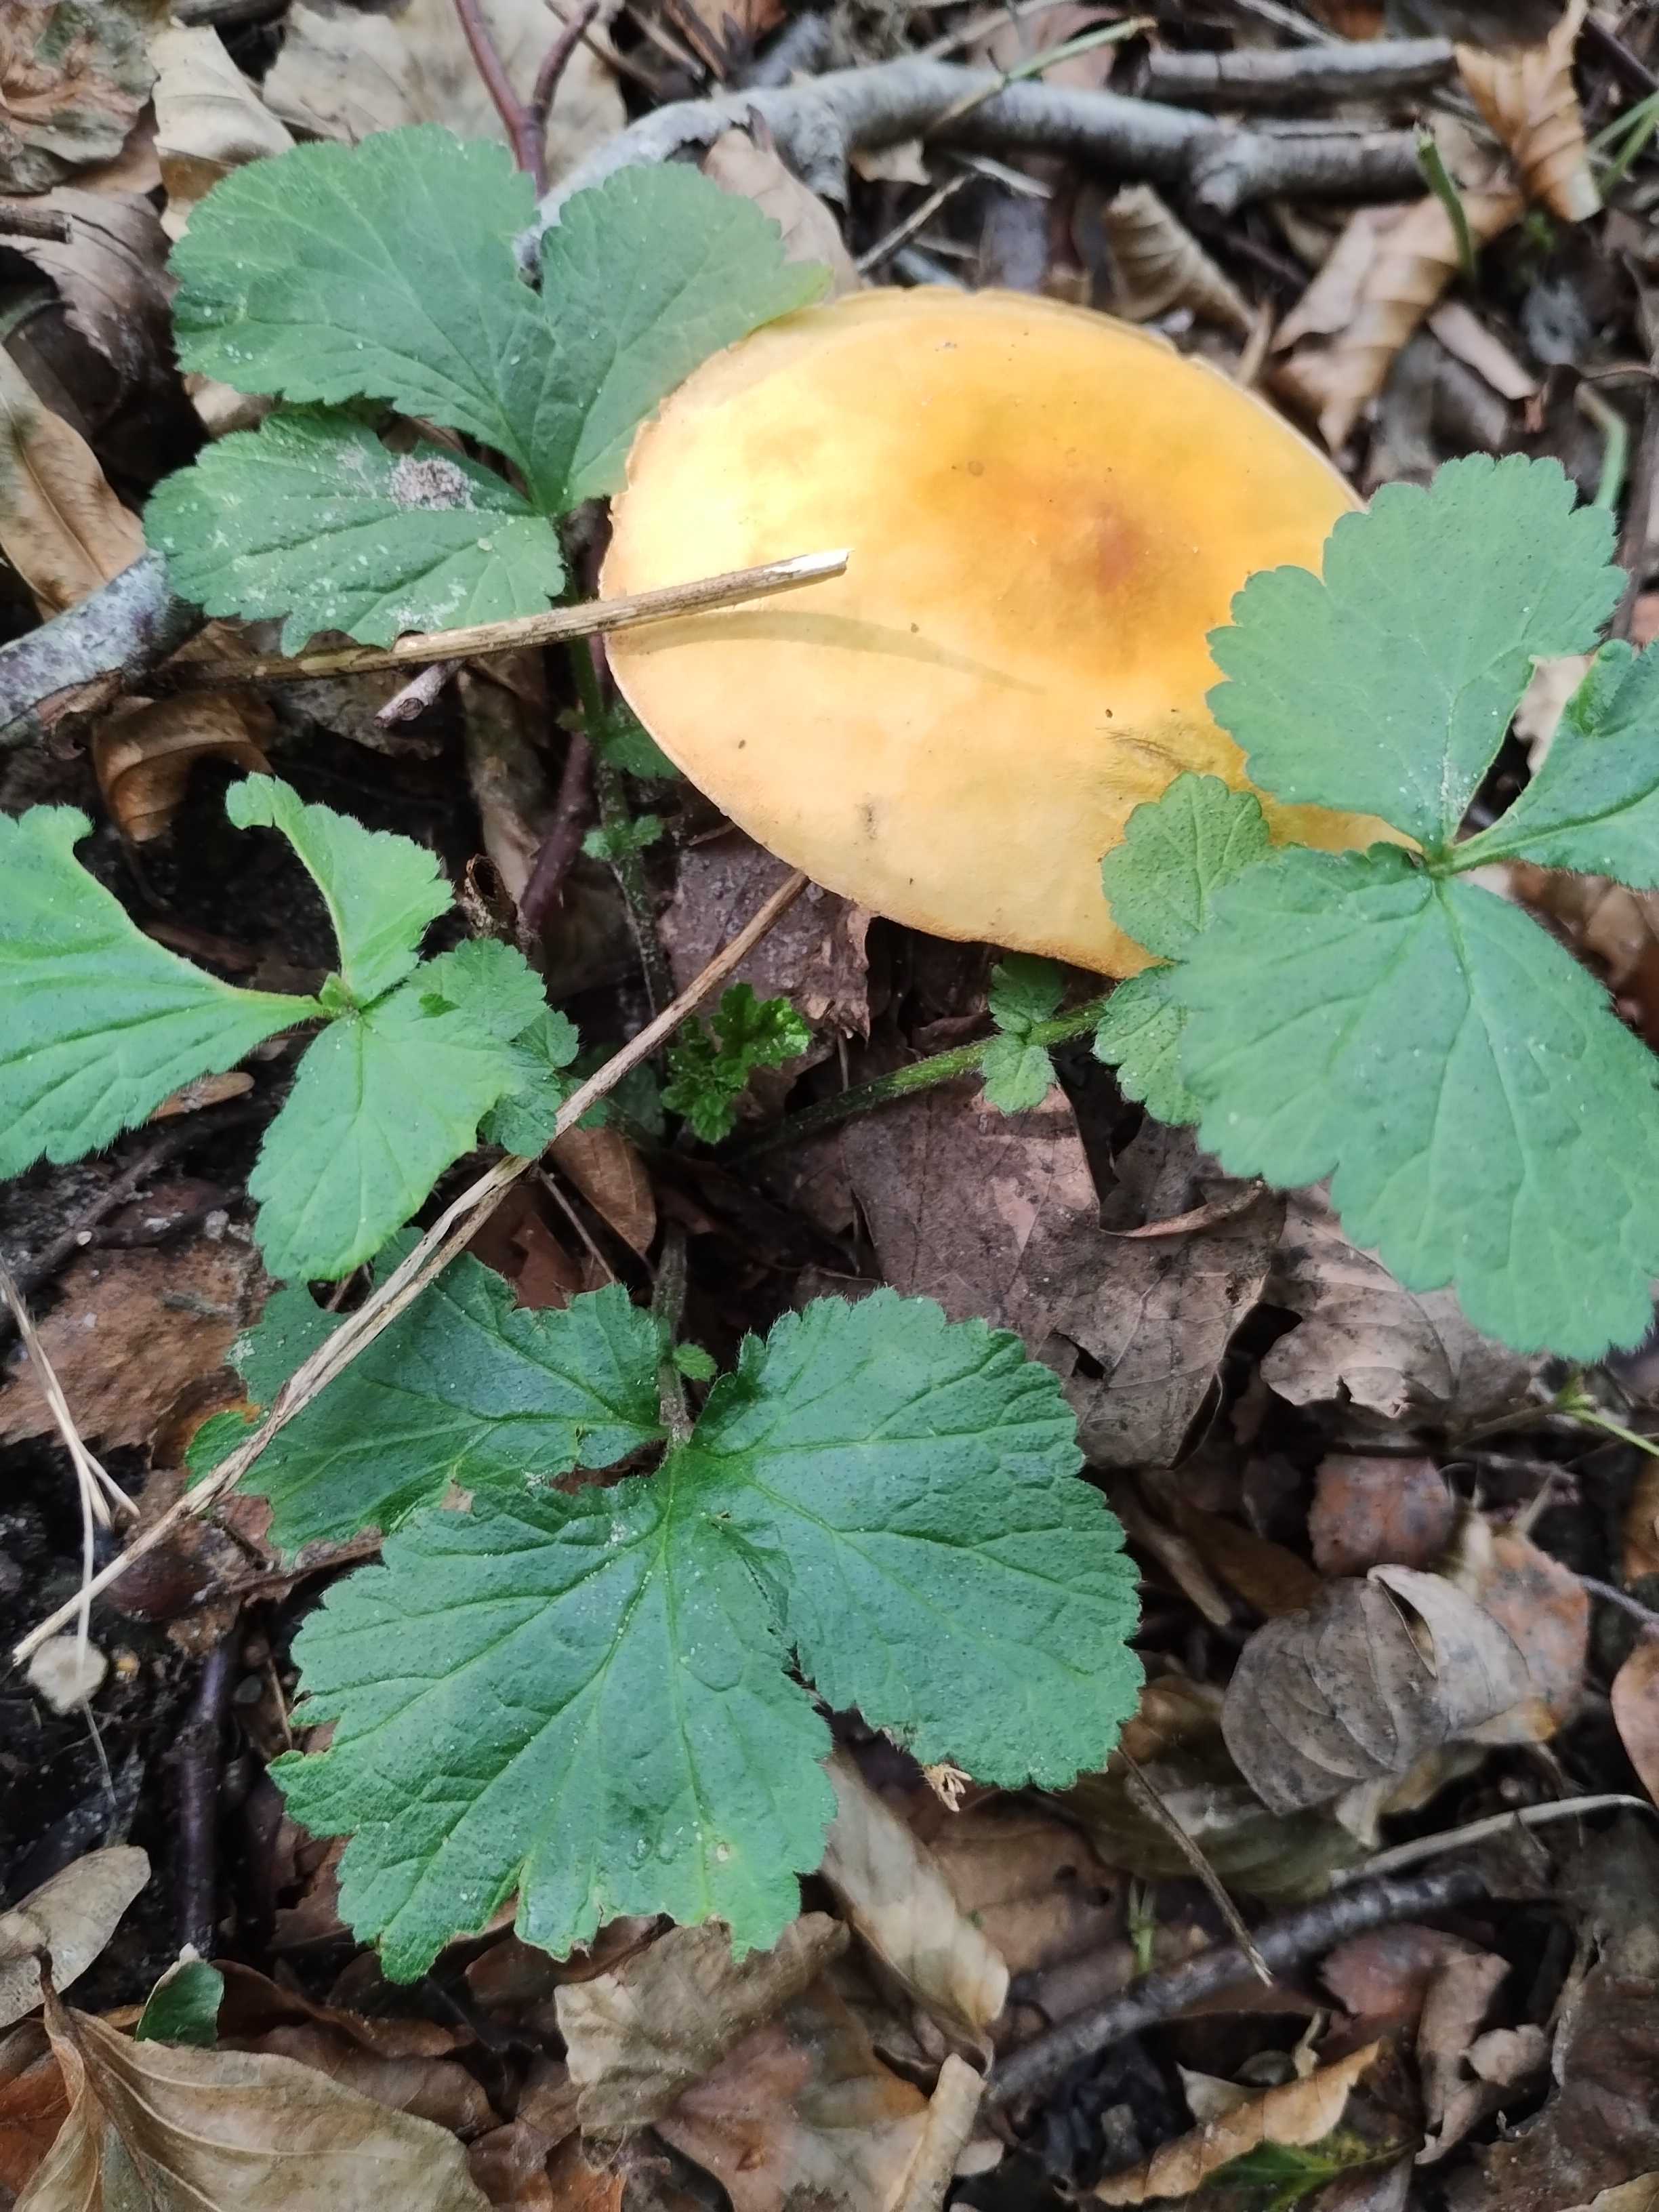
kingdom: Fungi
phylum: Basidiomycota
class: Agaricomycetes
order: Agaricales
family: Tricholomataceae
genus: Phaeolepiota
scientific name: Phaeolepiota aurea
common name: gyldenhat
